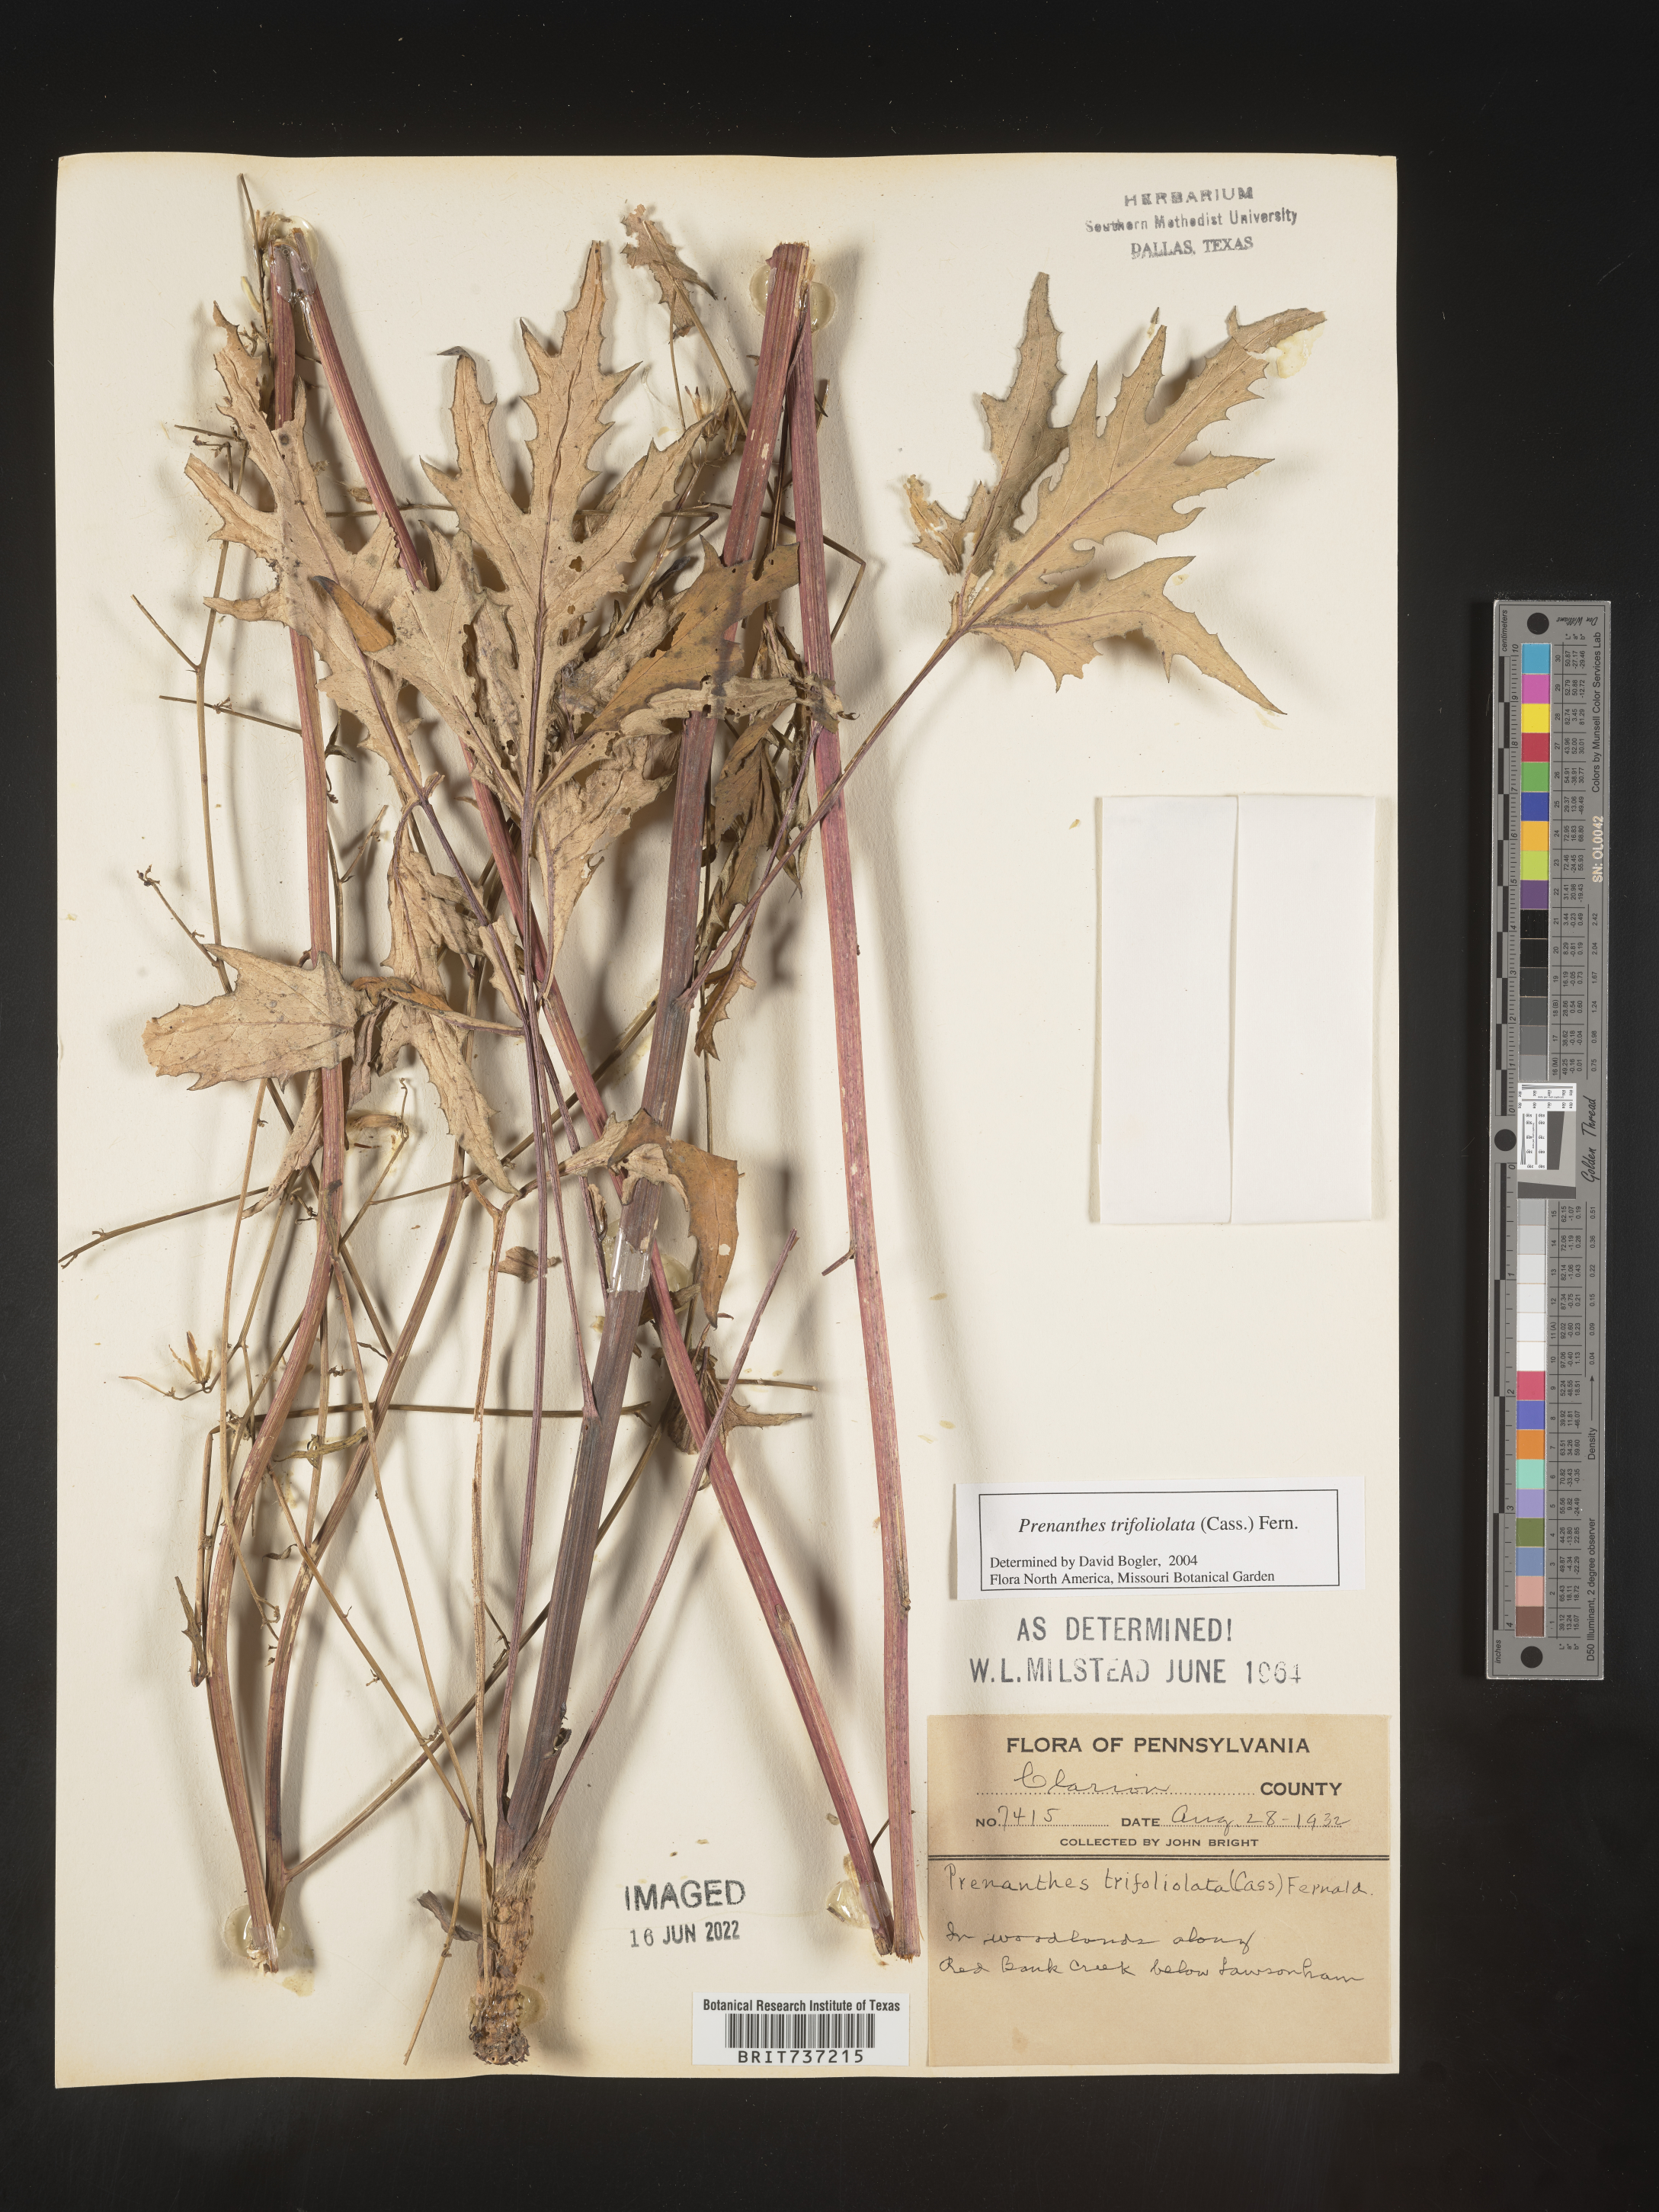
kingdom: Plantae
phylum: Tracheophyta
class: Magnoliopsida
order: Asterales
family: Asteraceae
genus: Nabalus
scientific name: Nabalus trifoliolatus
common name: Gall-of-the-earth
